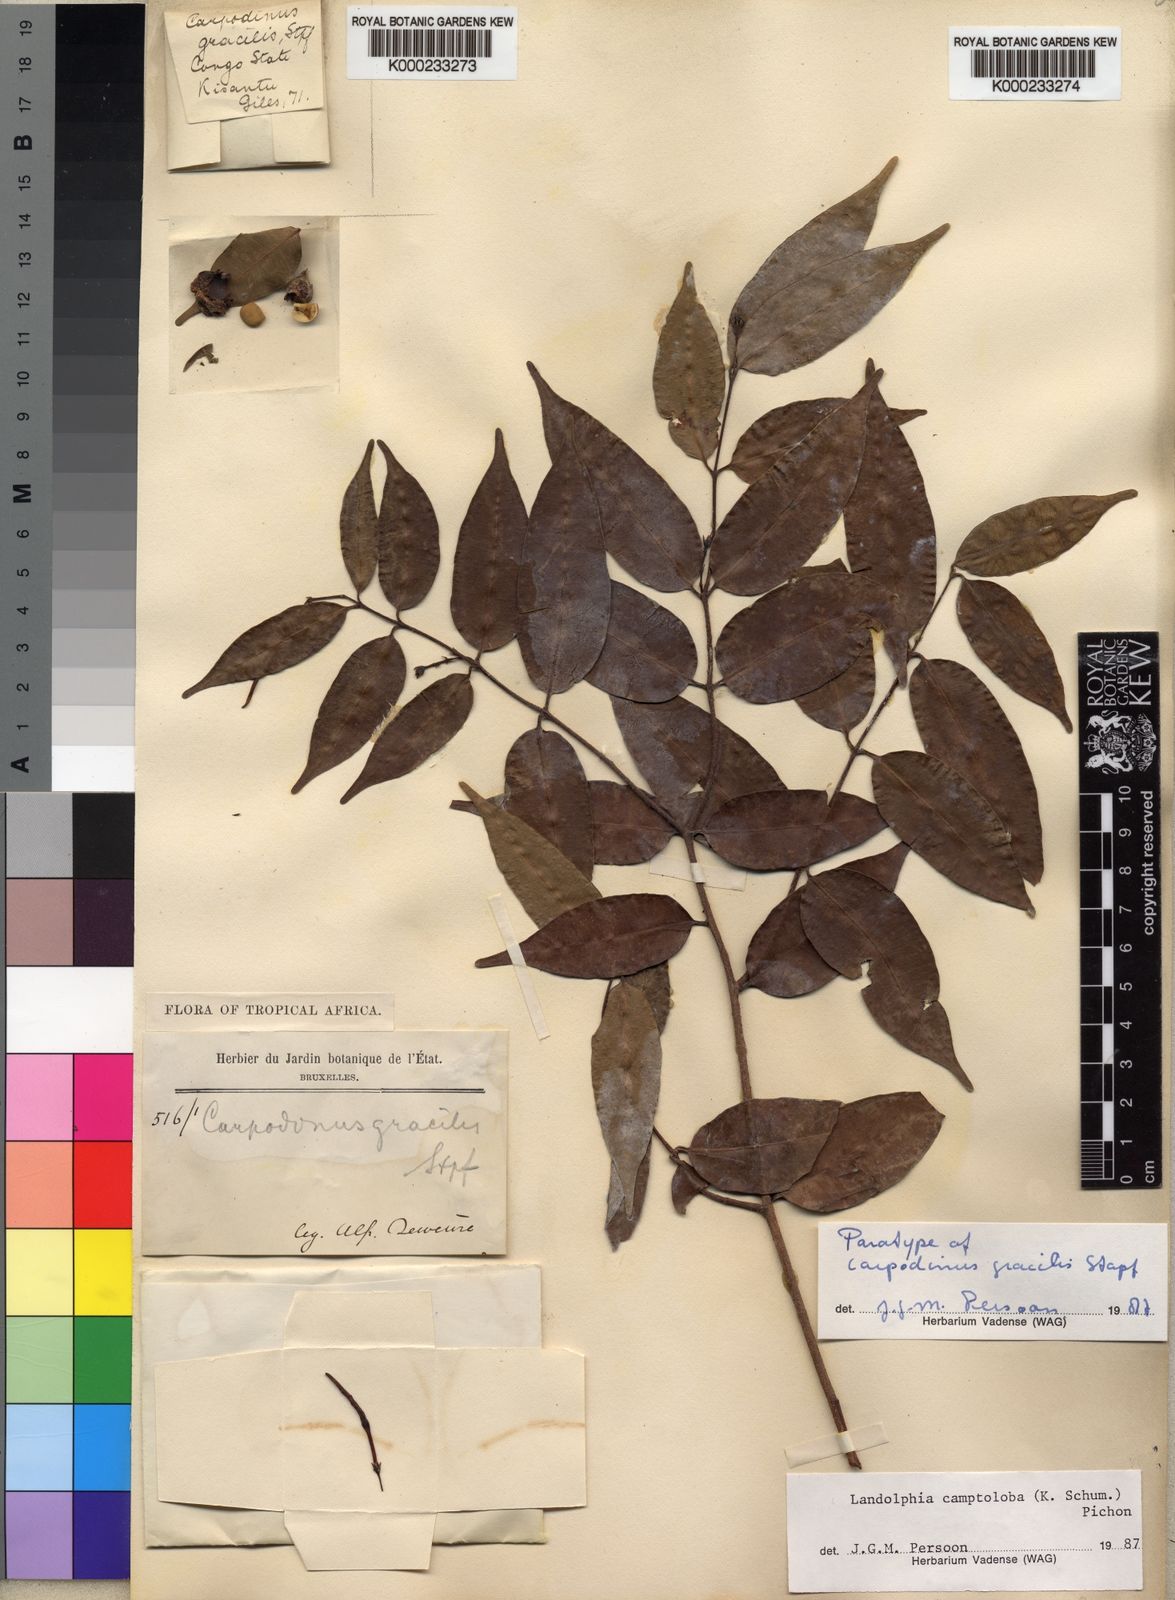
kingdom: Plantae
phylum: Tracheophyta
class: Magnoliopsida
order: Gentianales
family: Apocynaceae
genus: Landolphia
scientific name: Landolphia camptoloba
